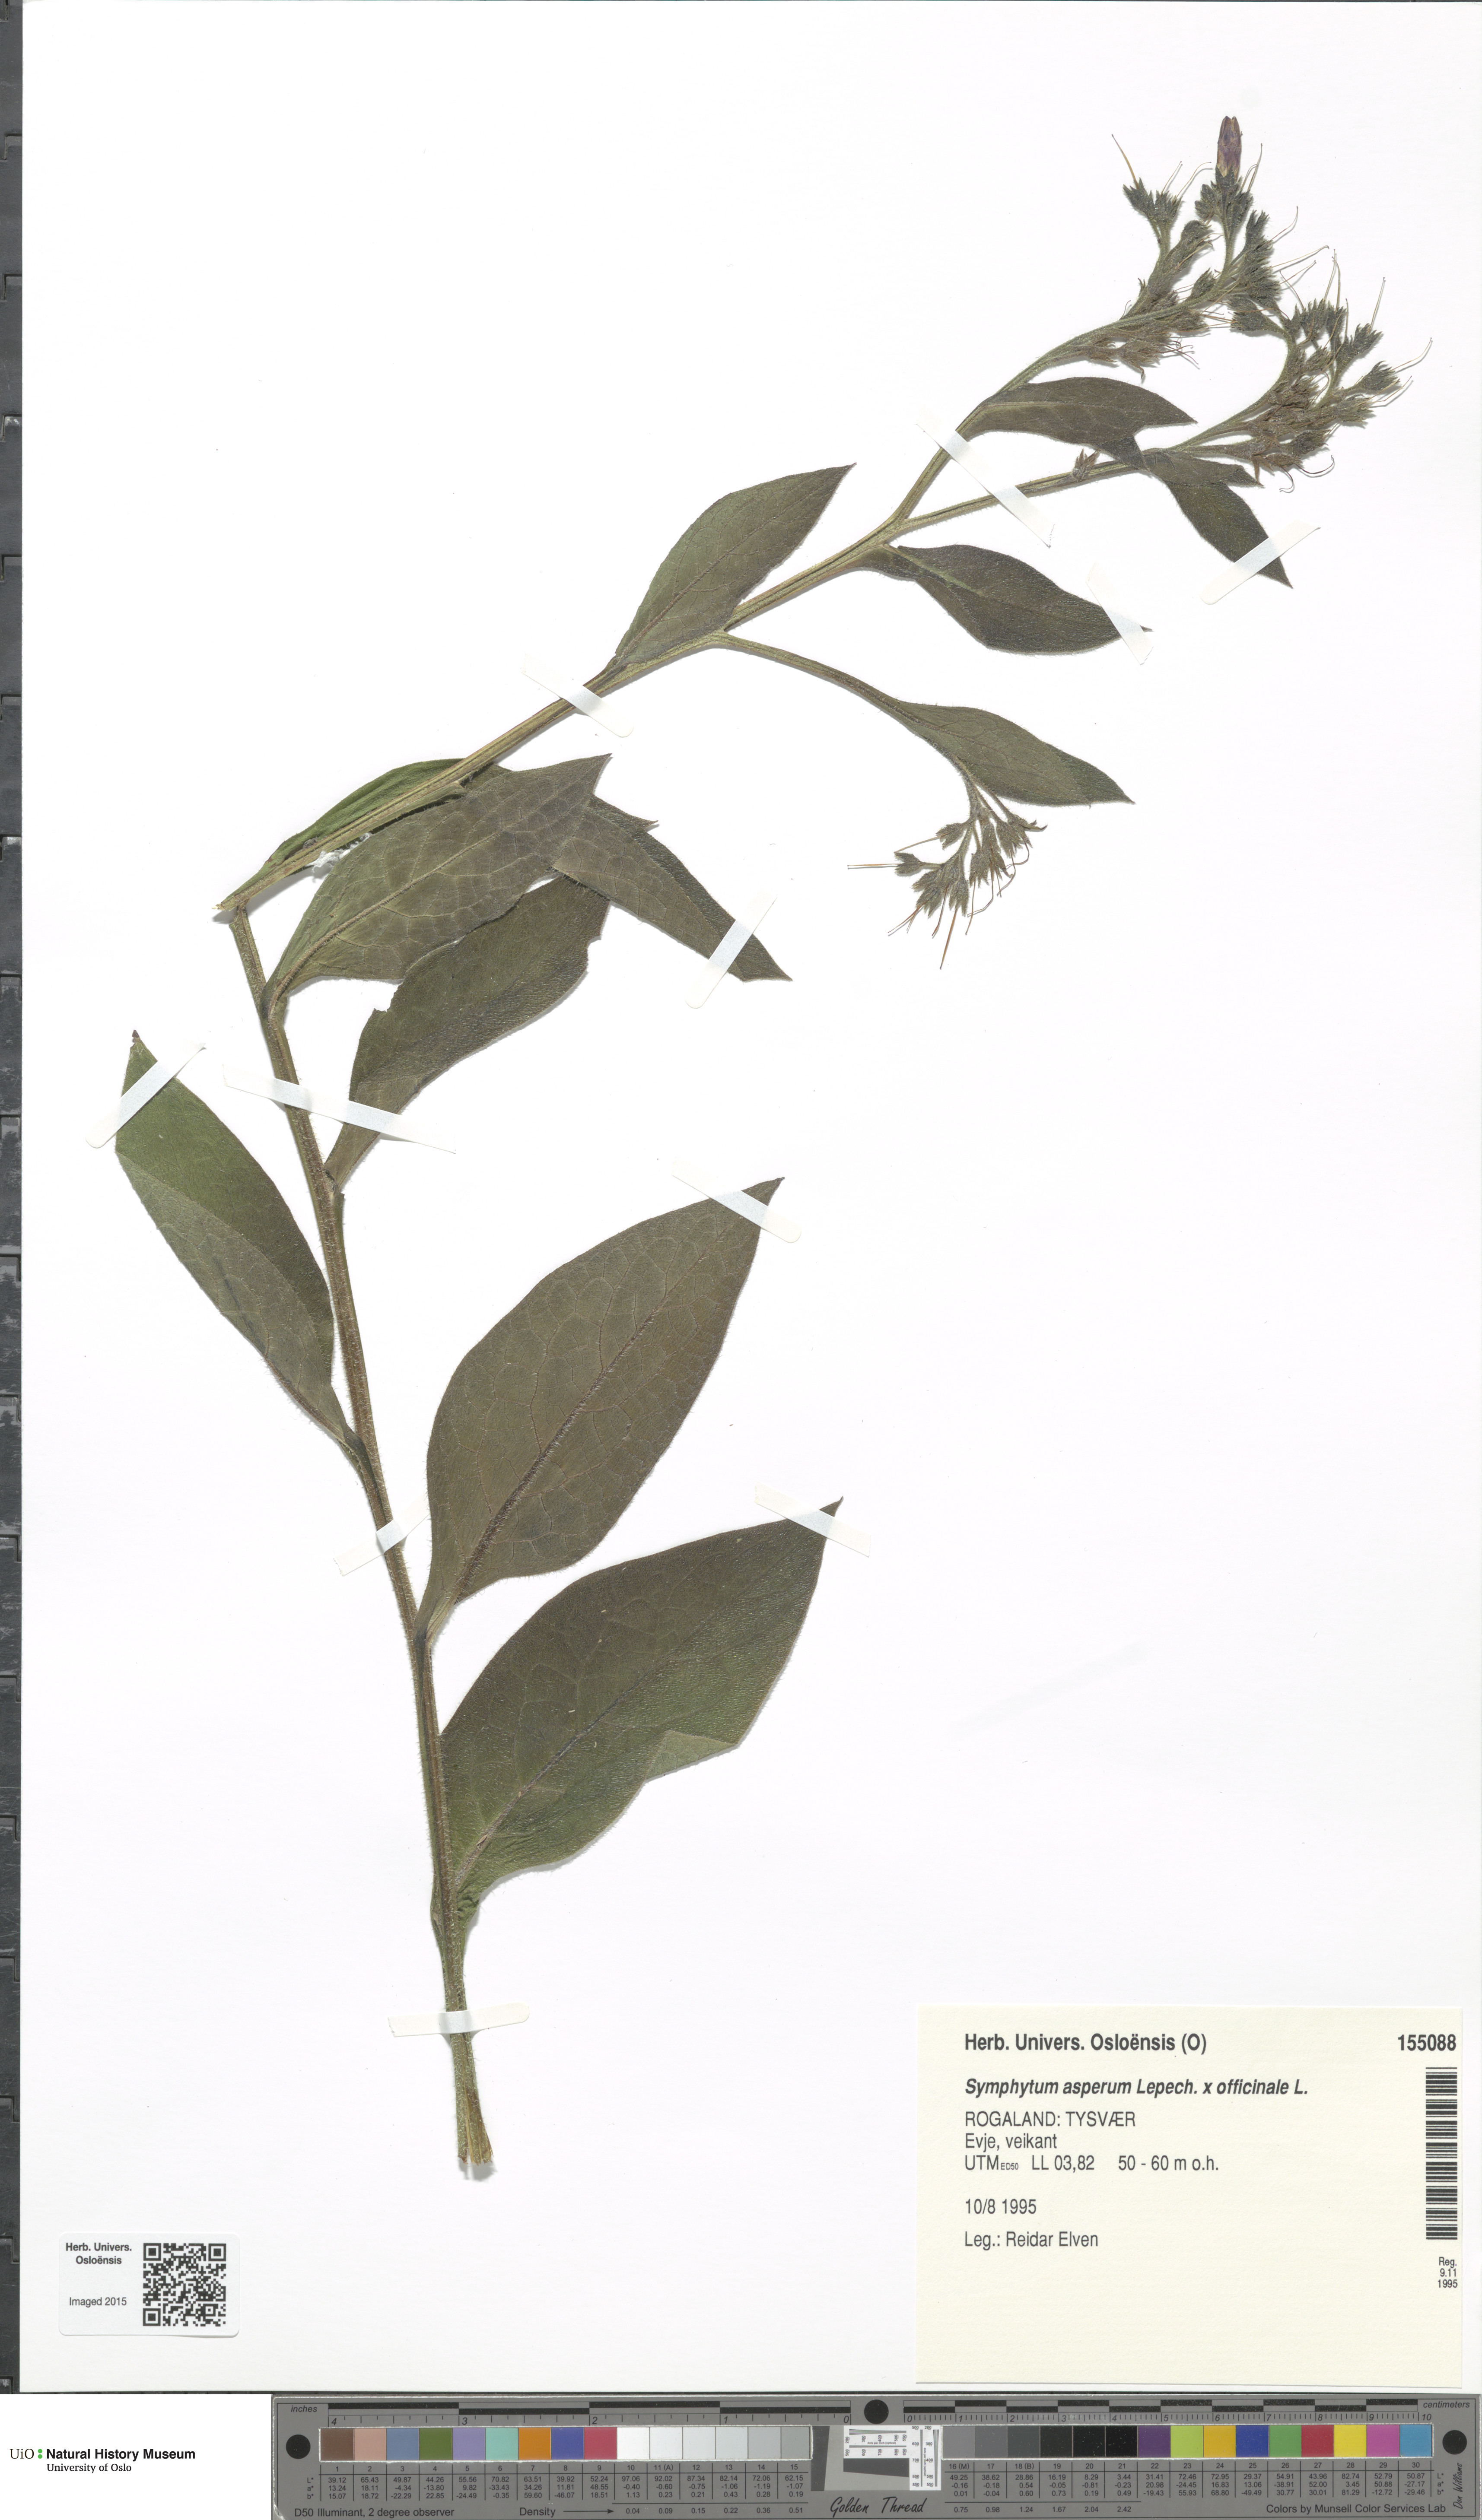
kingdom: Plantae
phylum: Tracheophyta
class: Magnoliopsida
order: Boraginales
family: Boraginaceae
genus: Symphytum
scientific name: Symphytum
